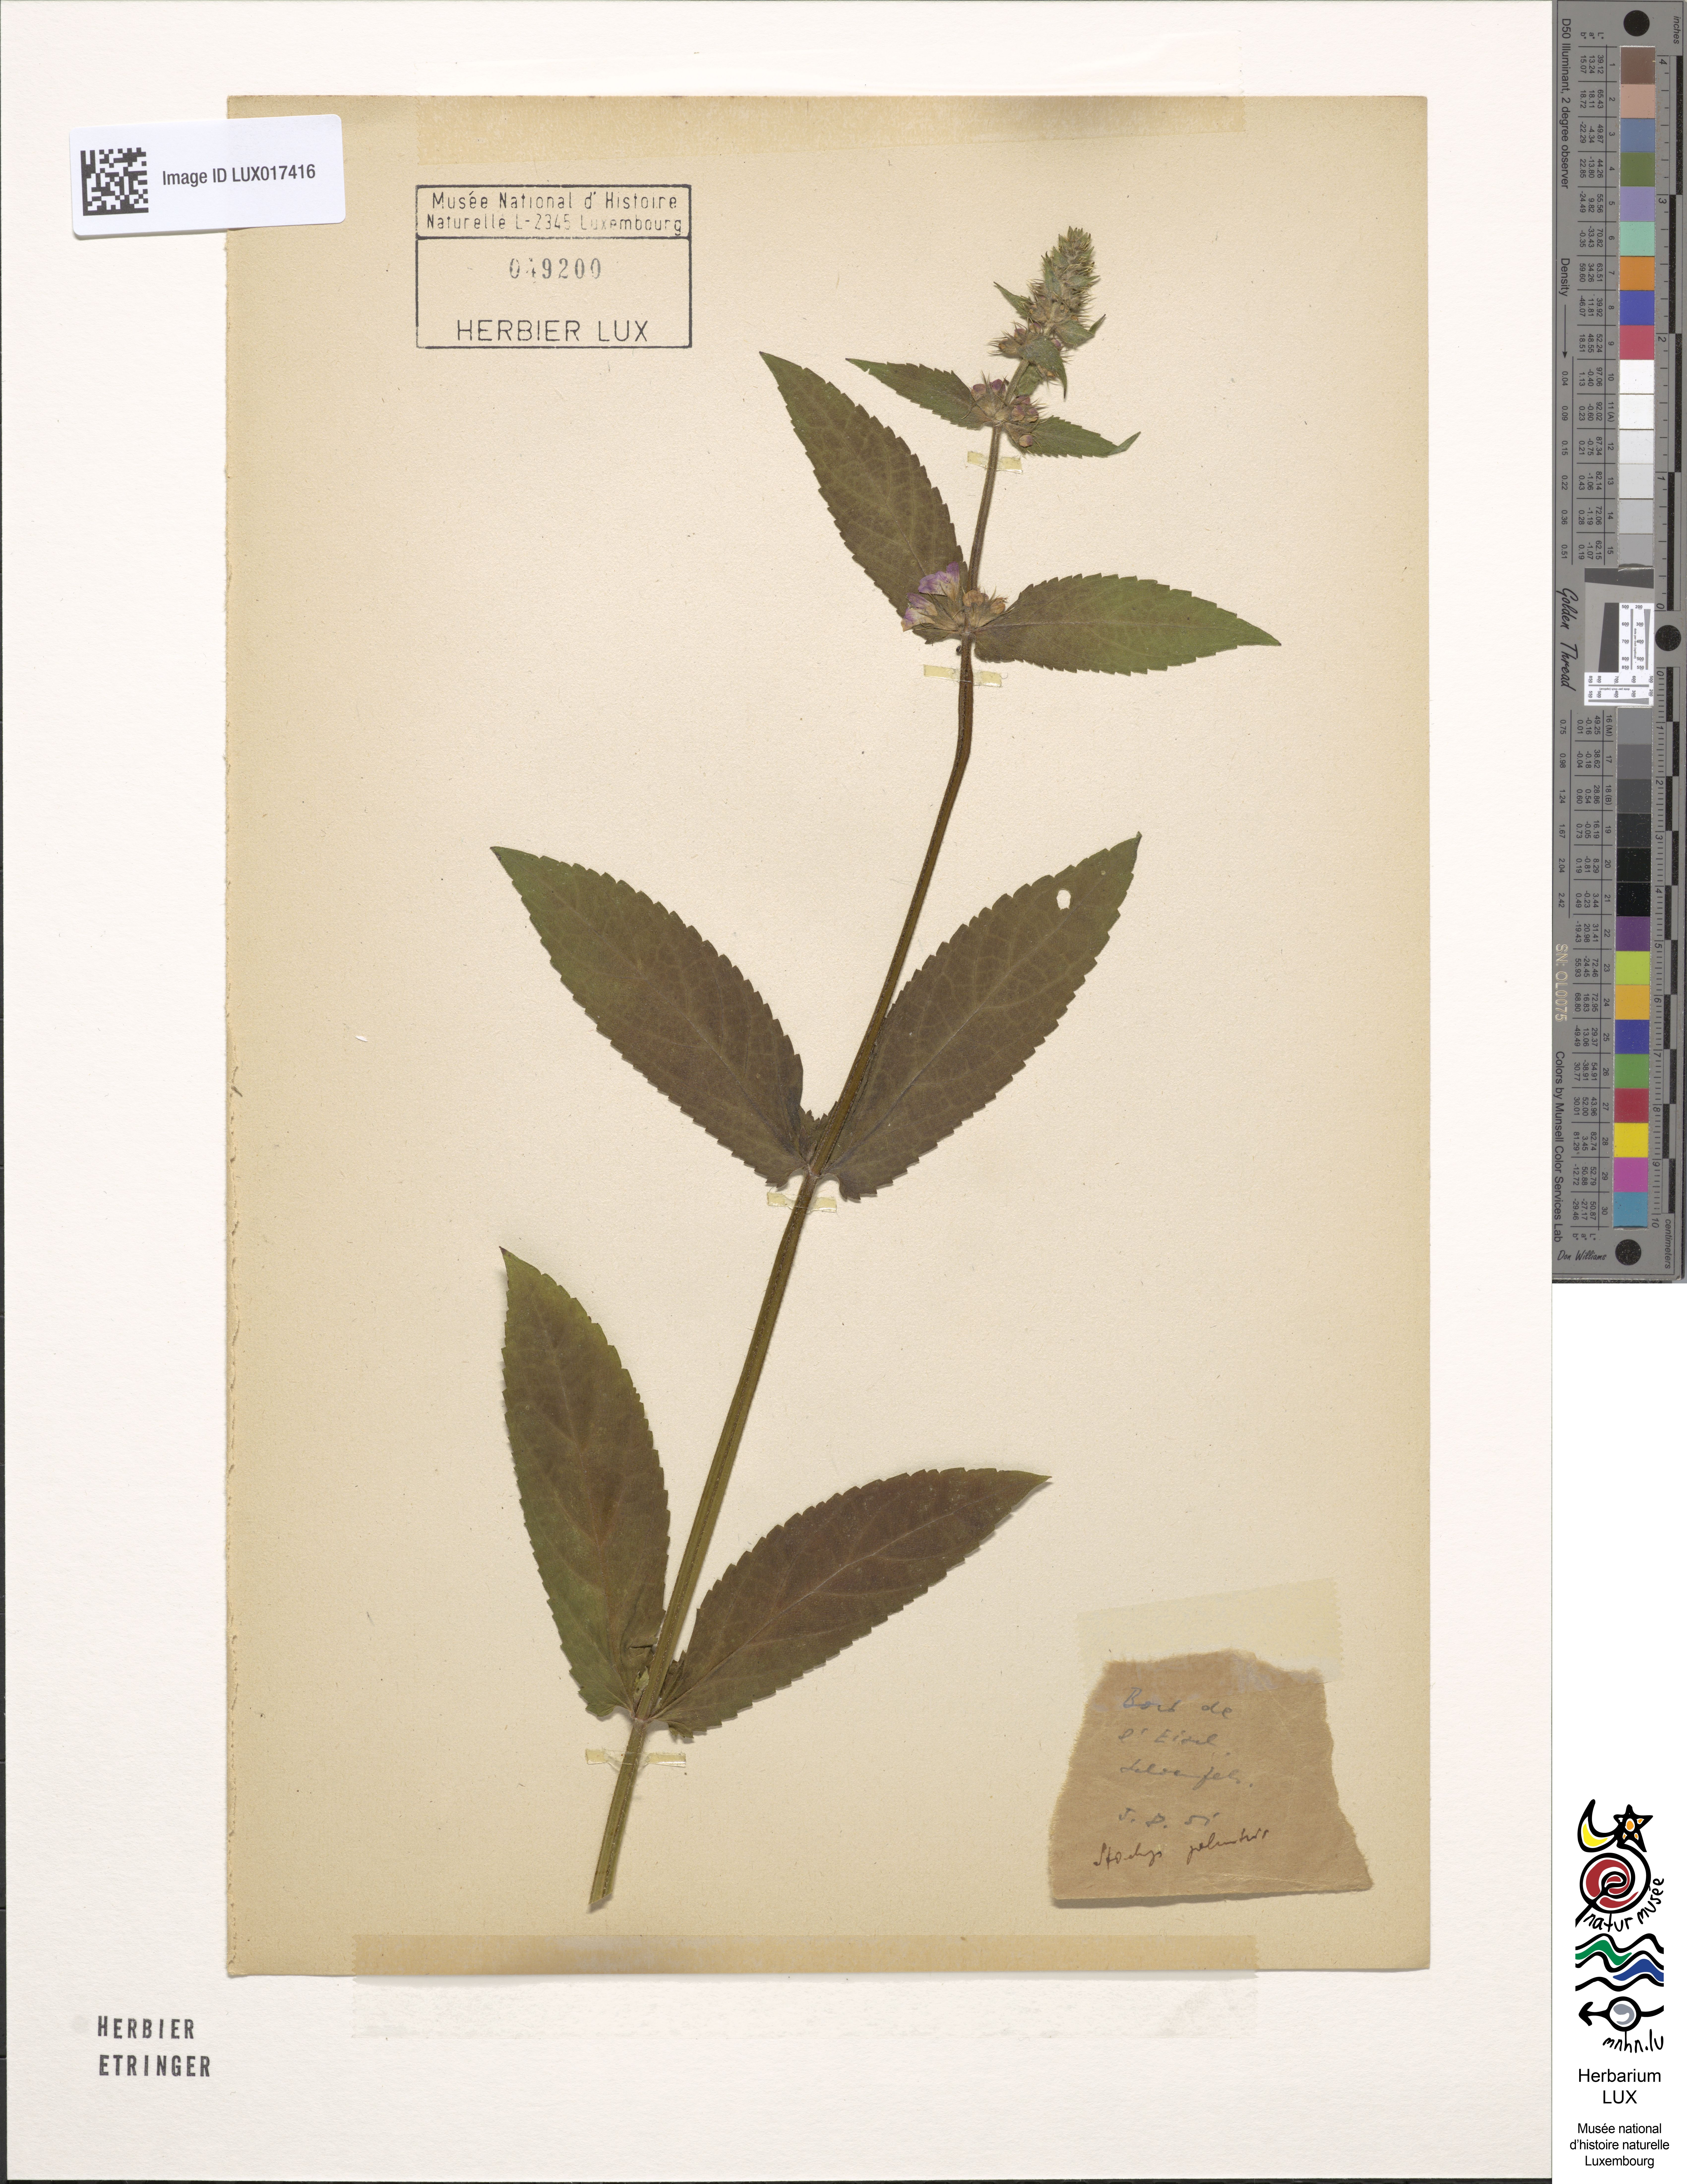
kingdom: Plantae
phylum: Tracheophyta
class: Magnoliopsida
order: Lamiales
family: Lamiaceae
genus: Stachys
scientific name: Stachys palustris
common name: Marsh woundwort
